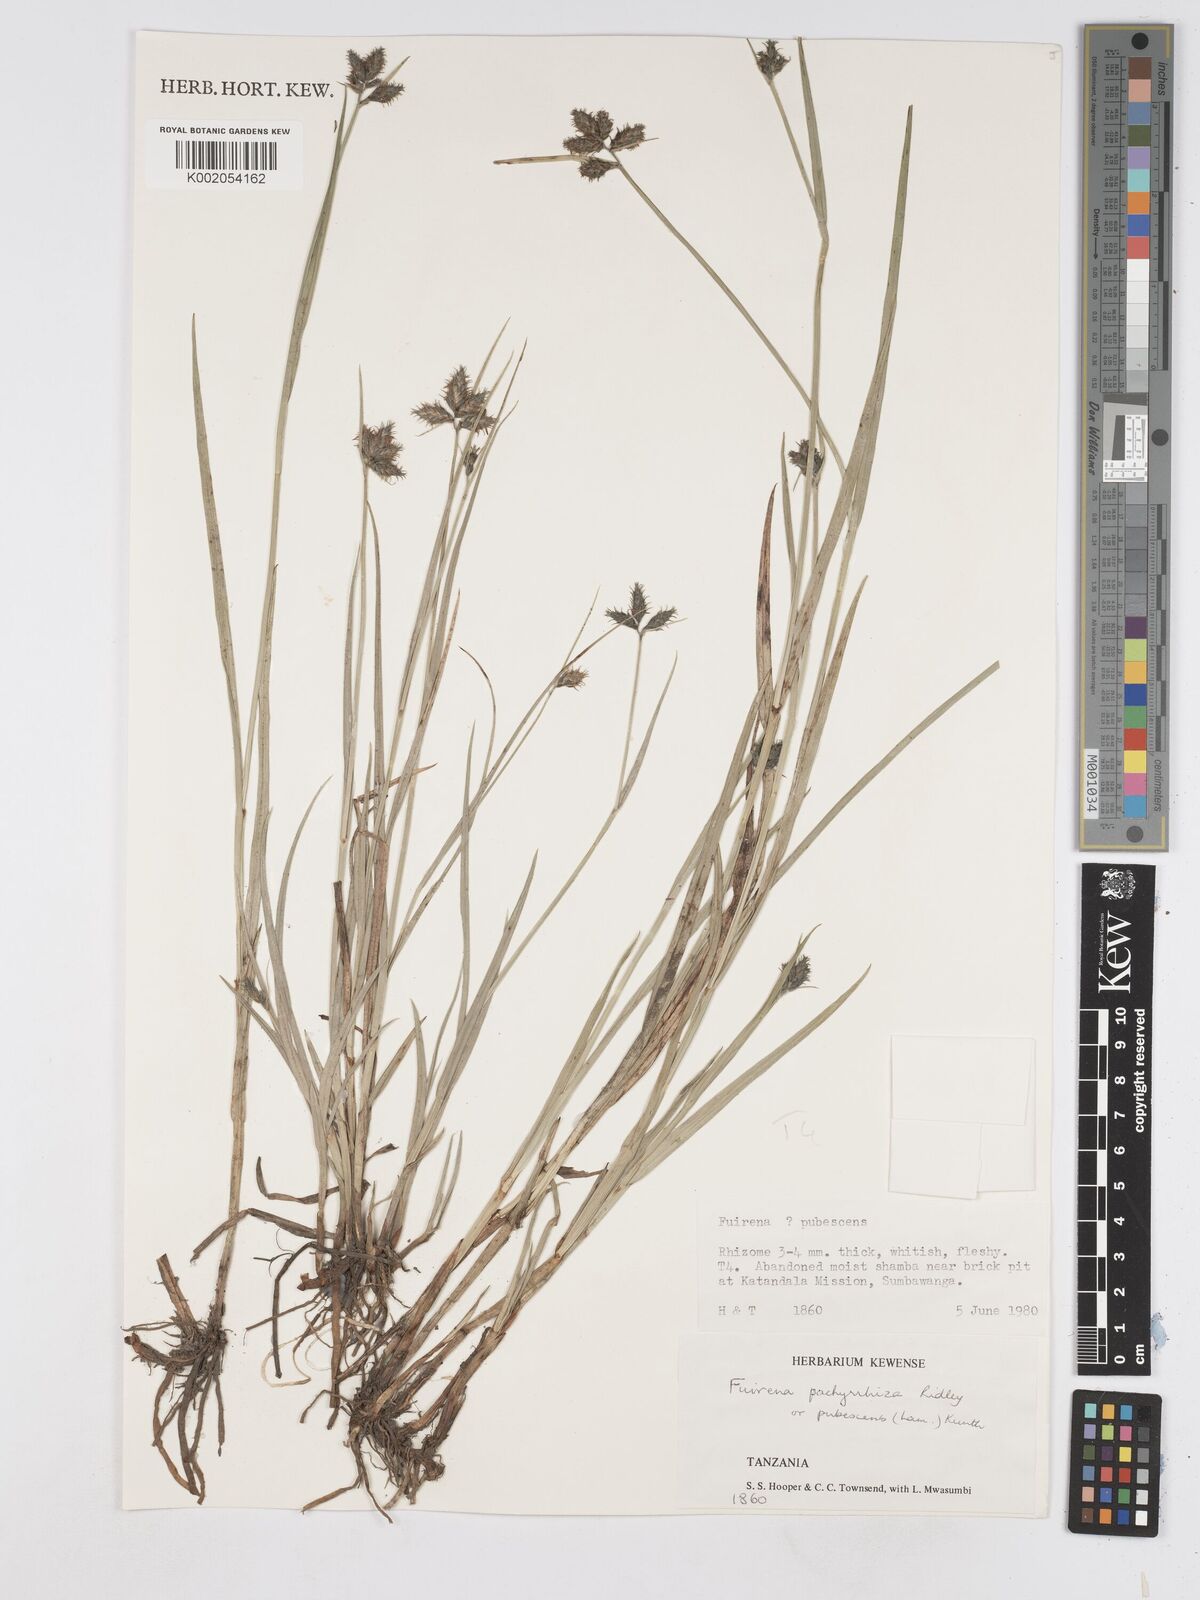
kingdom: Plantae
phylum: Tracheophyta
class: Liliopsida
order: Poales
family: Cyperaceae
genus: Fuirena
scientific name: Fuirena pachyrrhiza
